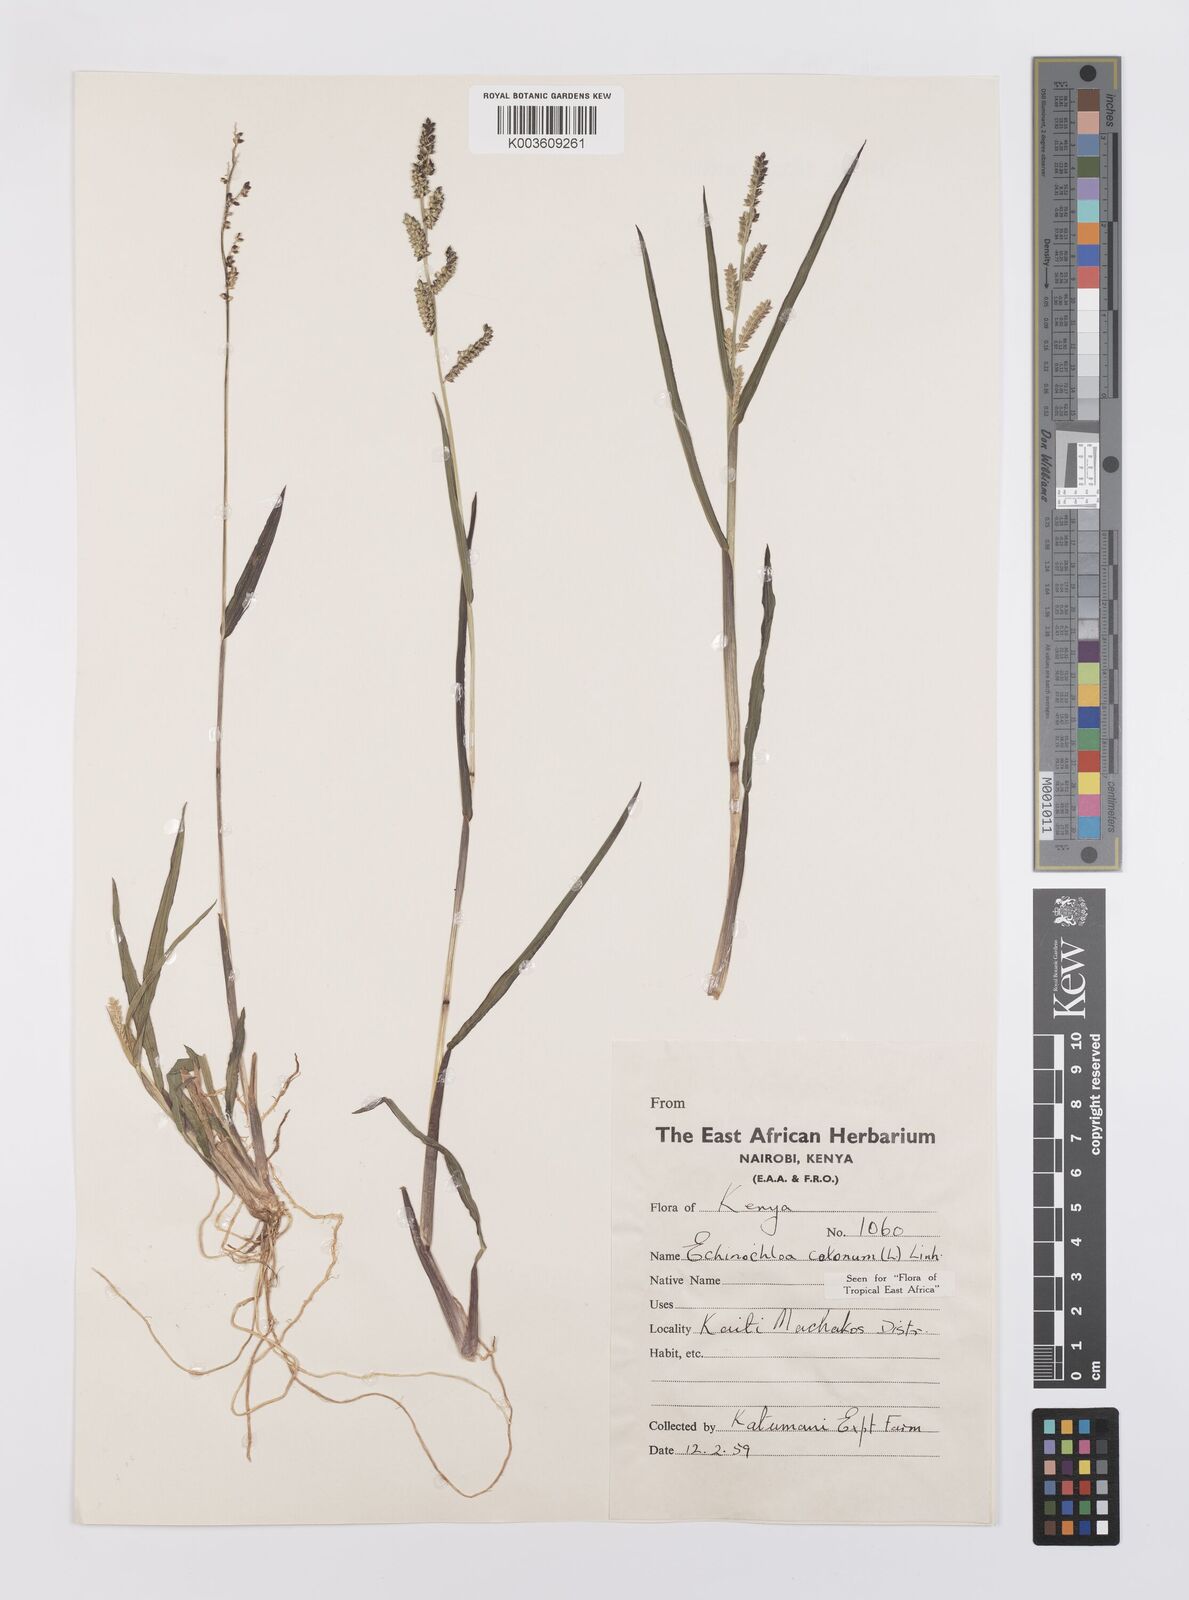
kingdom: Plantae
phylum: Tracheophyta
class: Liliopsida
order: Poales
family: Poaceae
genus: Echinochloa
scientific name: Echinochloa colonum
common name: Jungle rice
